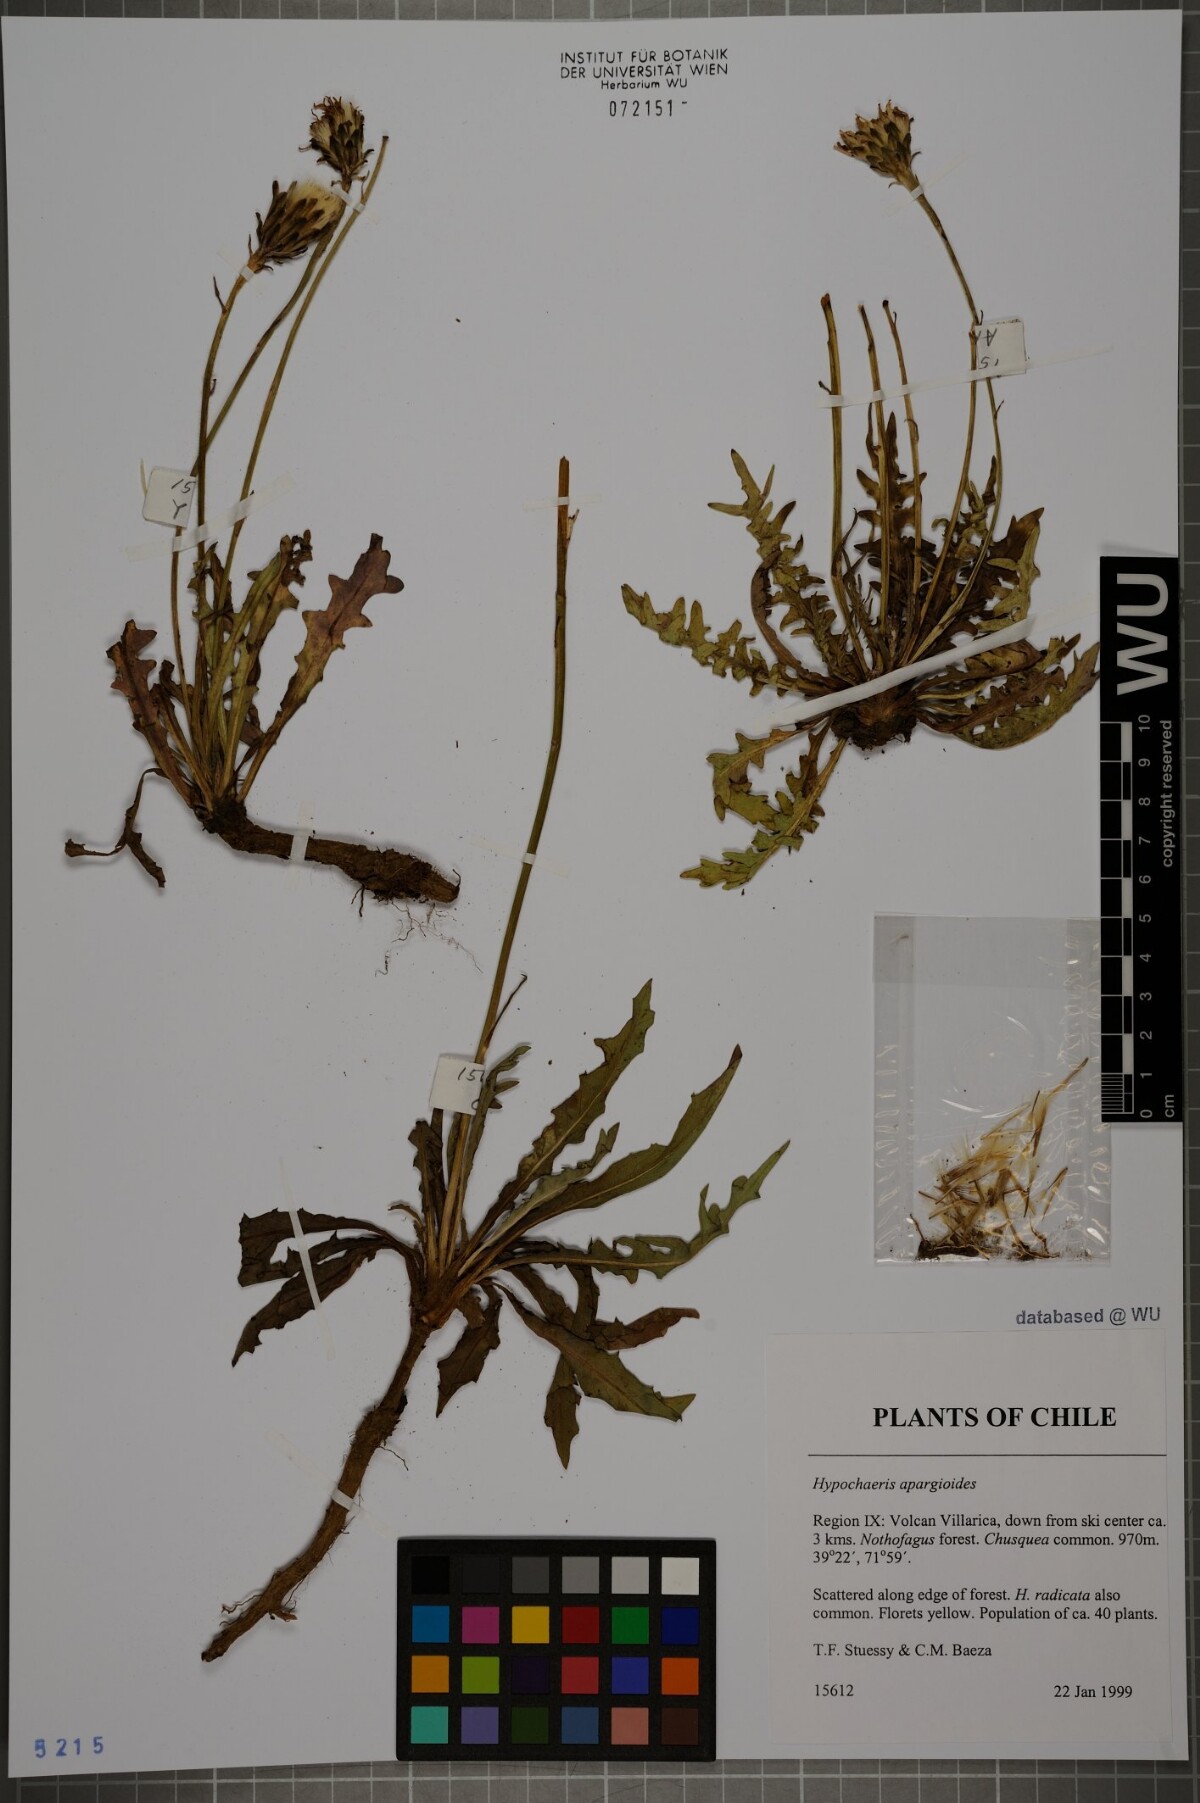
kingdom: Plantae
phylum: Tracheophyta
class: Magnoliopsida
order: Asterales
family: Asteraceae
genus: Hypochaeris
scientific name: Hypochaeris apargioides
